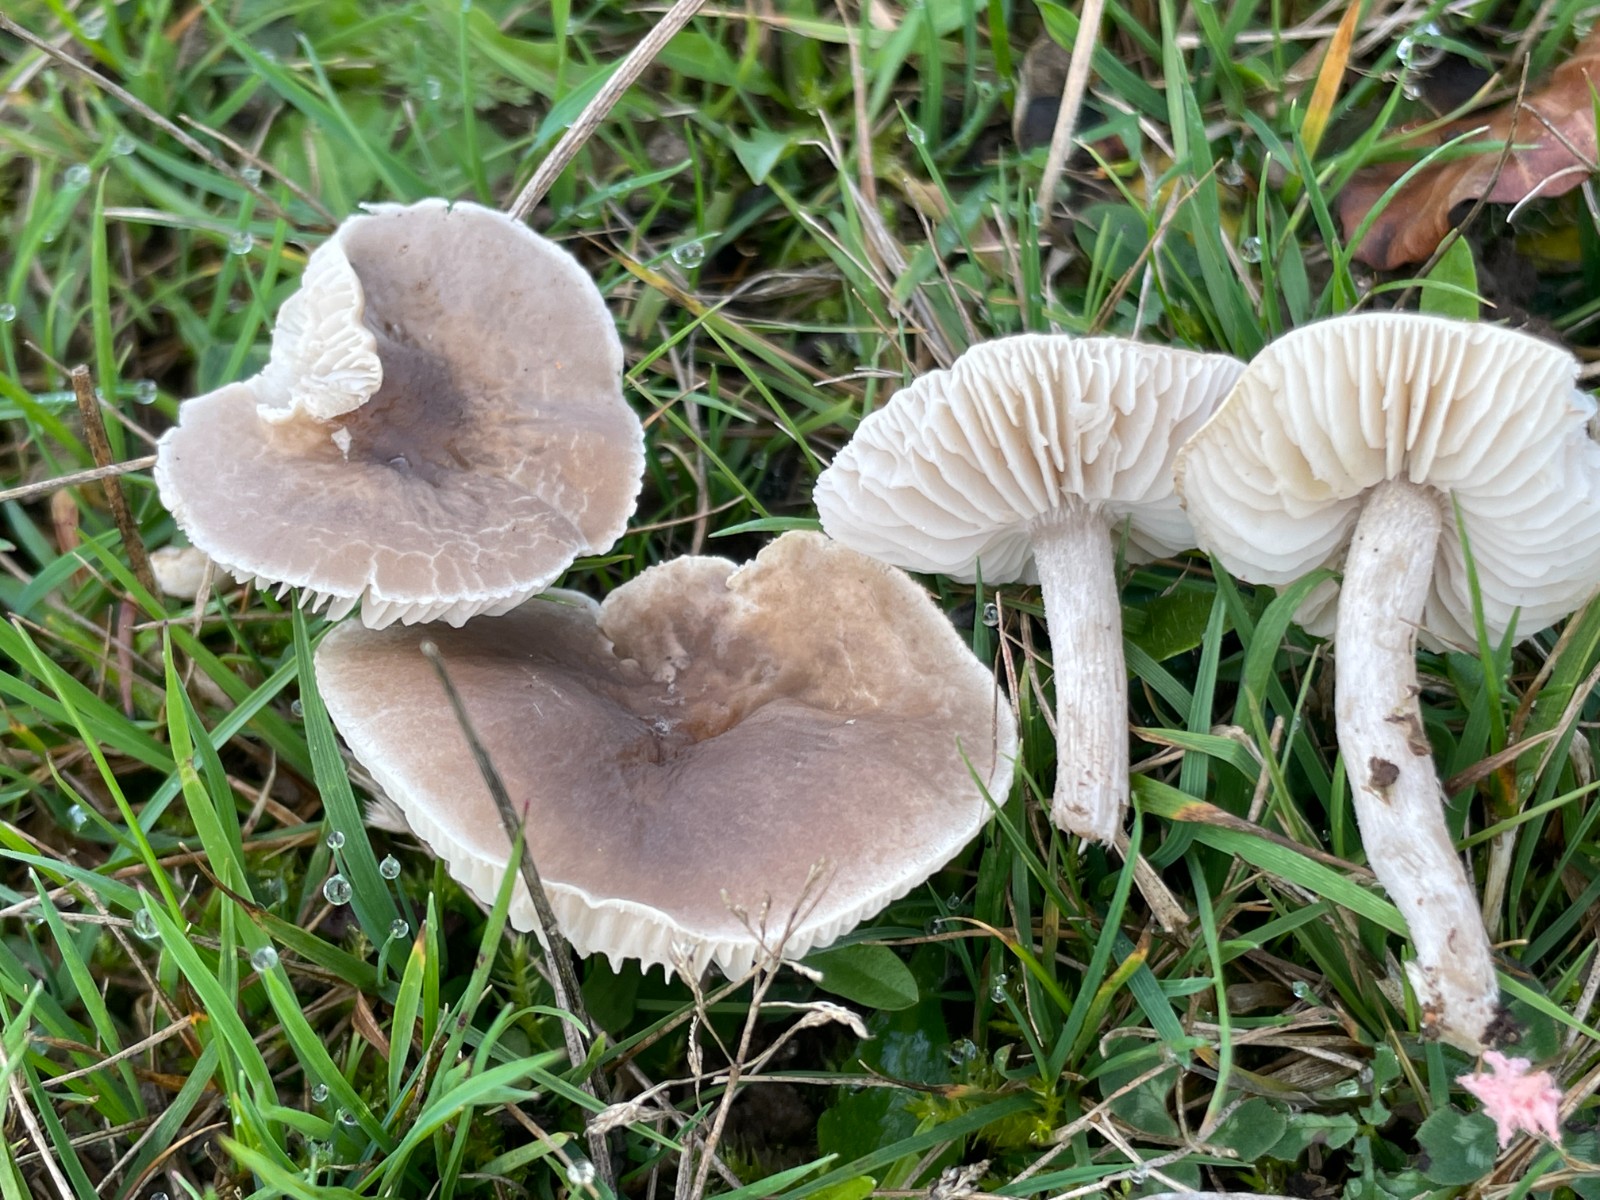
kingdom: Fungi
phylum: Basidiomycota
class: Agaricomycetes
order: Agaricales
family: Tricholomataceae
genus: Dermoloma
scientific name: Dermoloma cuneifolium
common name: eng-nonnehat
